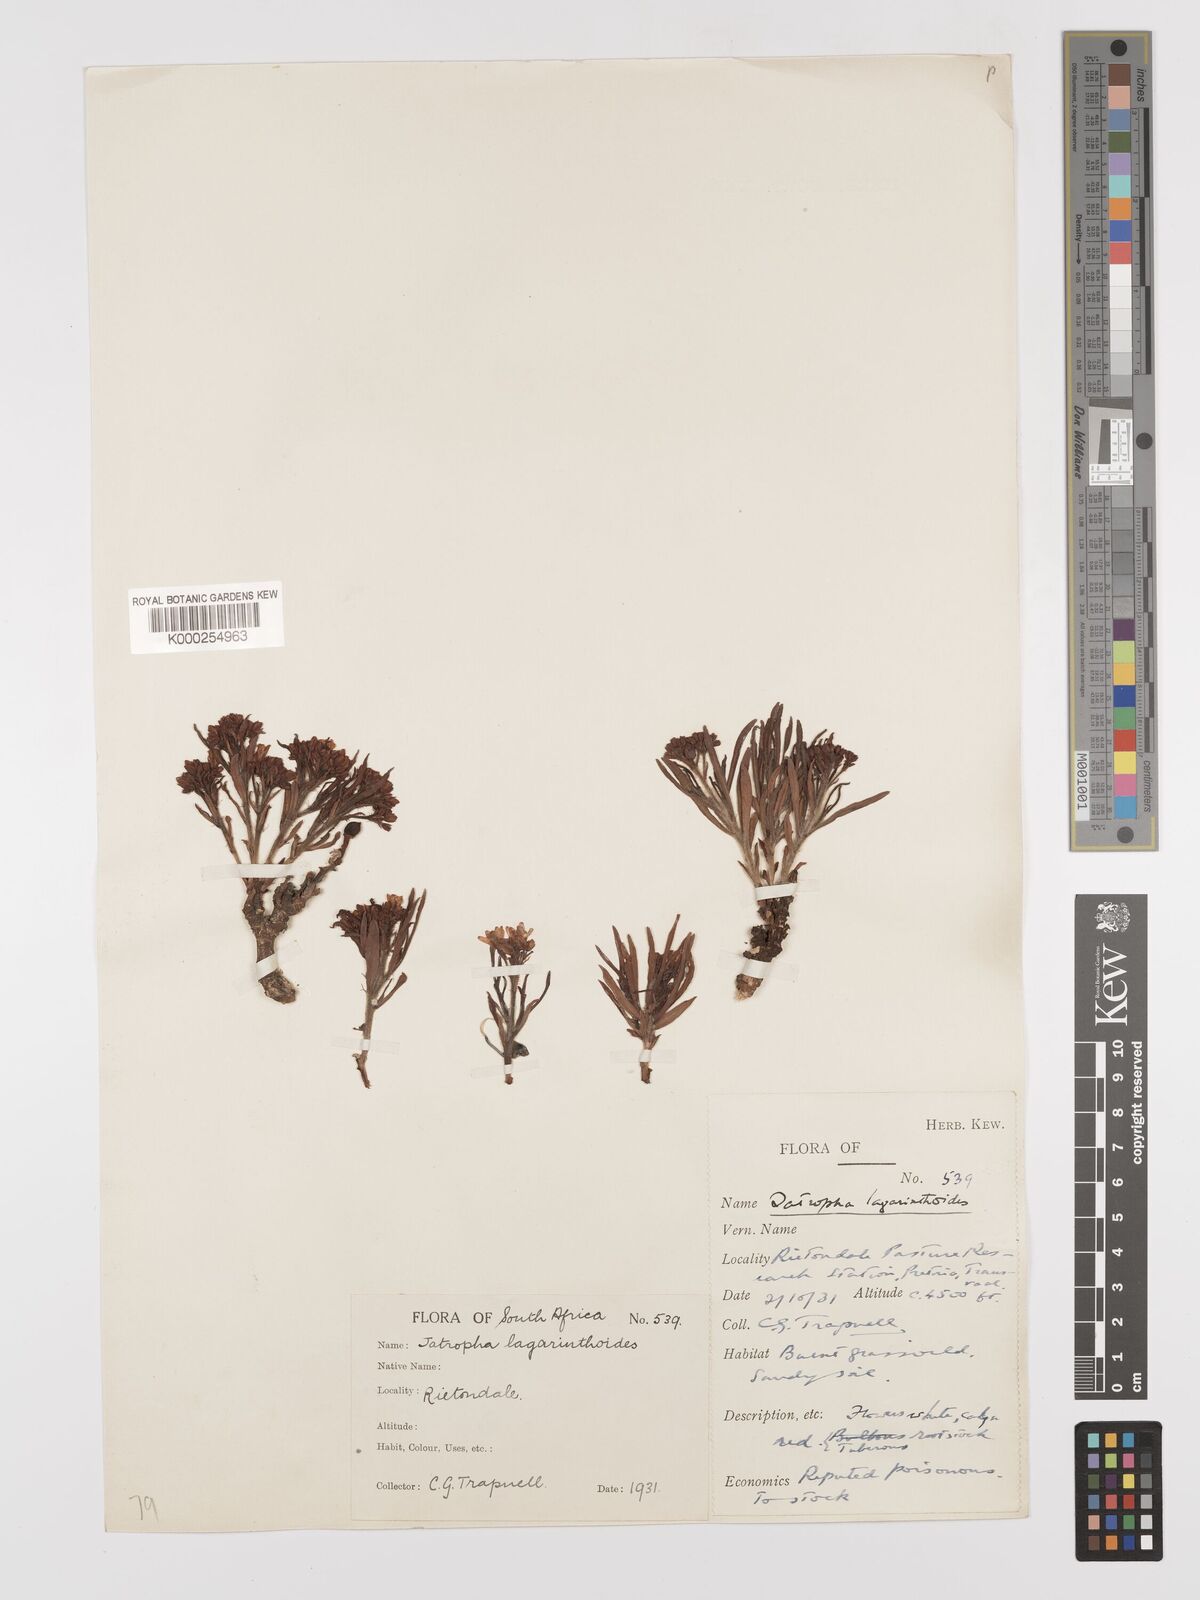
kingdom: Plantae
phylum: Tracheophyta
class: Magnoliopsida
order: Malpighiales
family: Euphorbiaceae
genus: Jatropha
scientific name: Jatropha lagarinthoides
